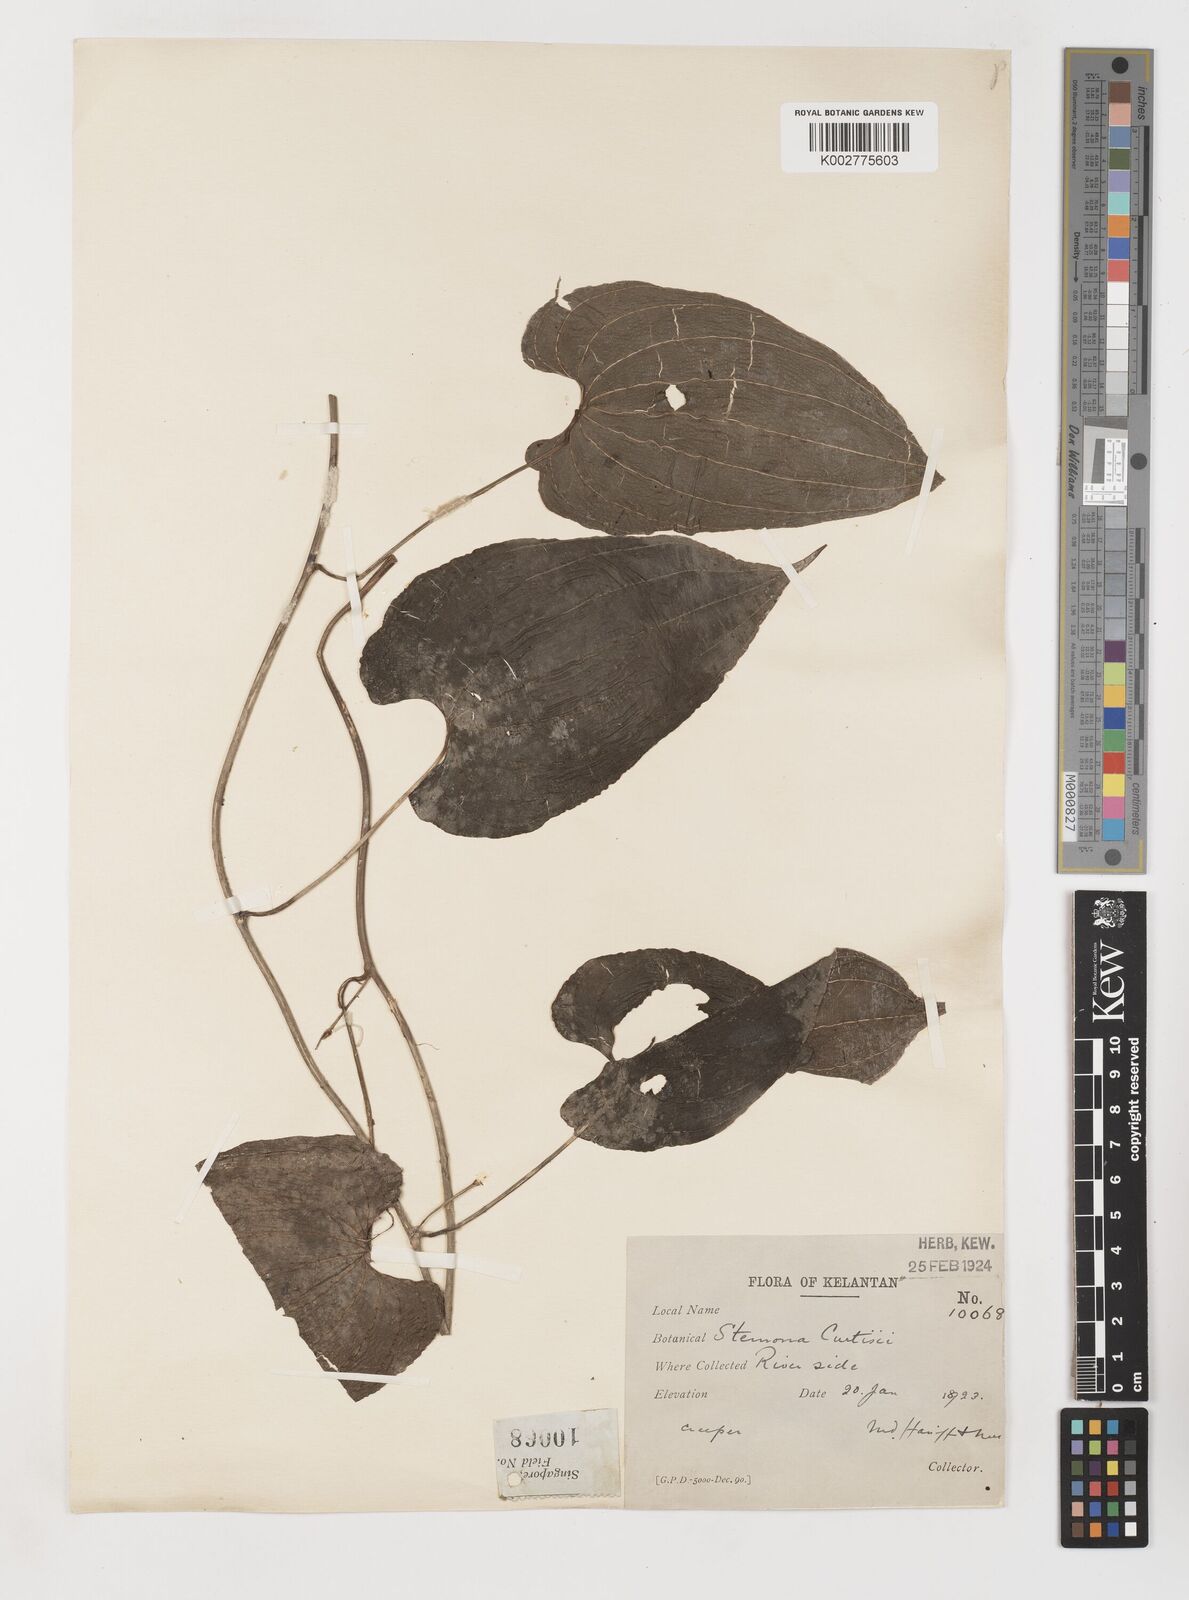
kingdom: Plantae
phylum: Tracheophyta
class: Liliopsida
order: Pandanales
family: Stemonaceae
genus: Stemona
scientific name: Stemona tuberosa
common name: Stemona
